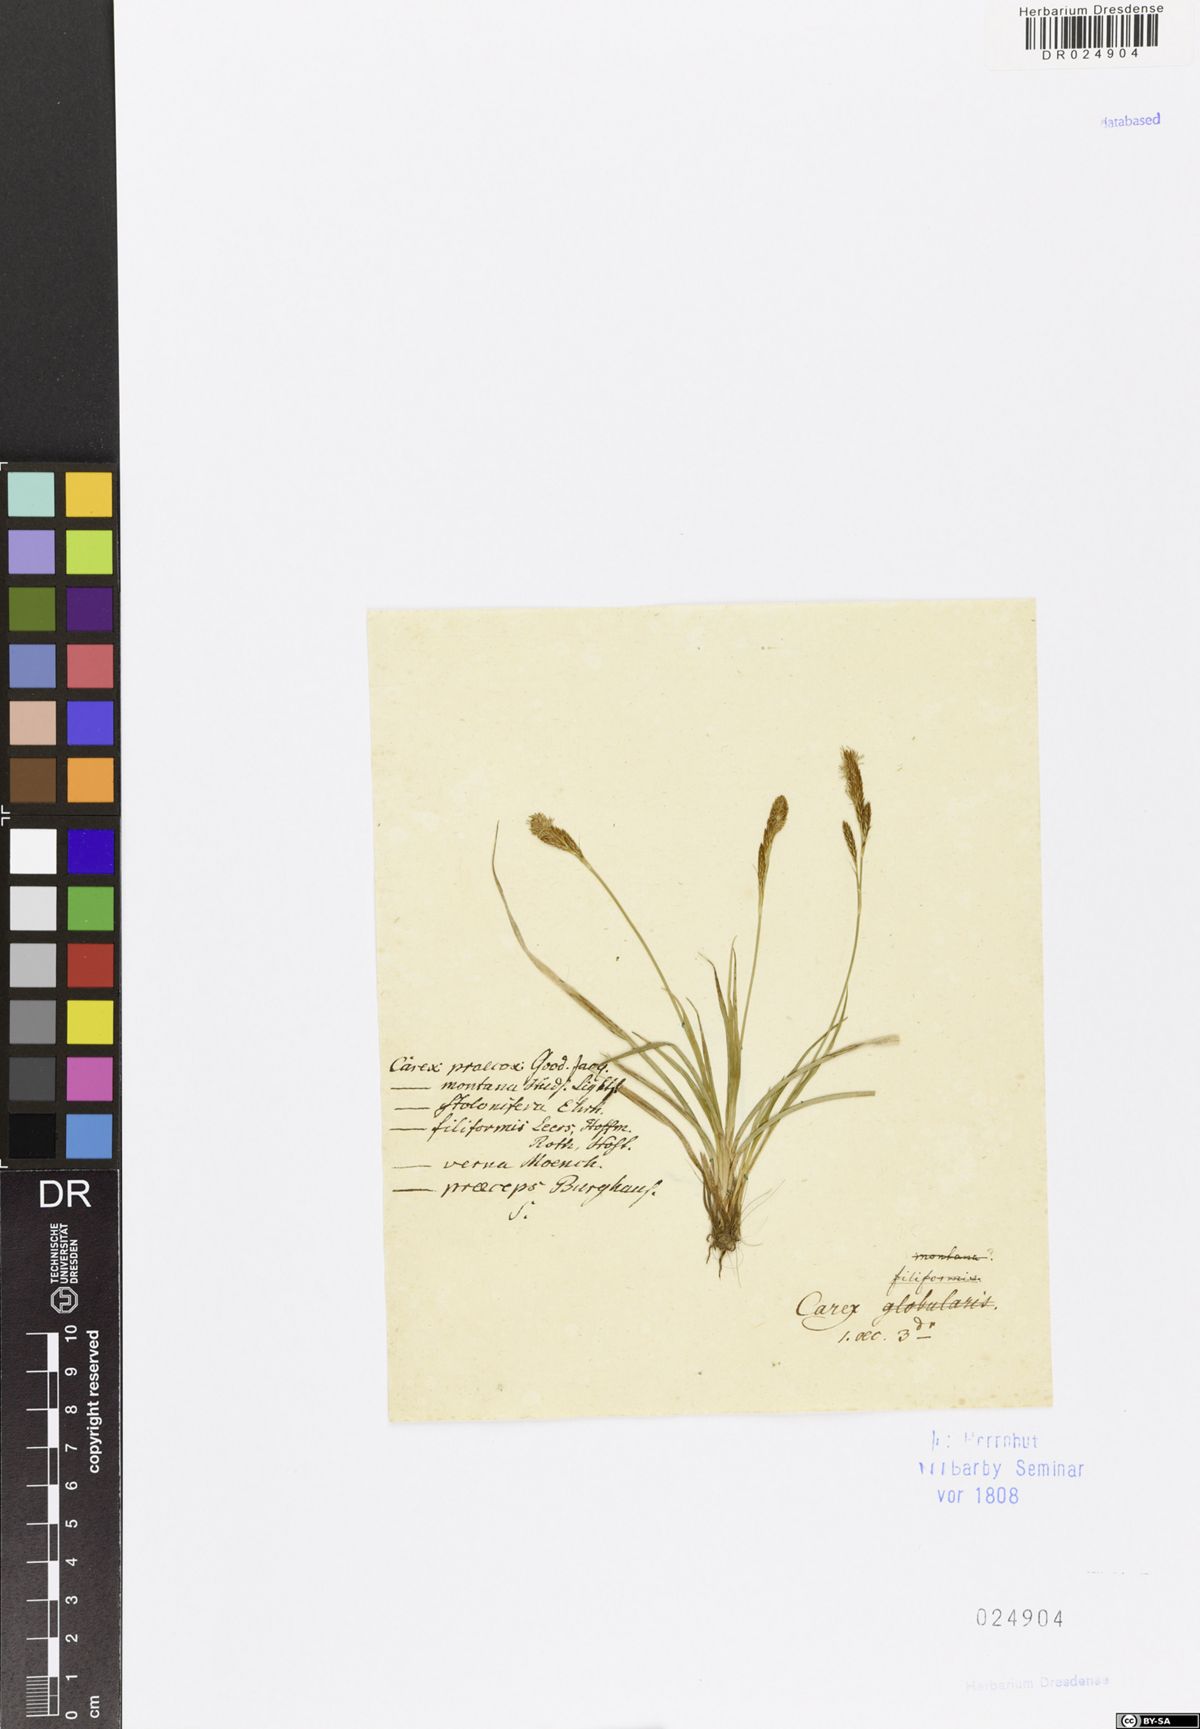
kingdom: Plantae
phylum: Tracheophyta
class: Liliopsida
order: Poales
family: Cyperaceae
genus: Carex
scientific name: Carex caryophyllea
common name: Spring sedge
